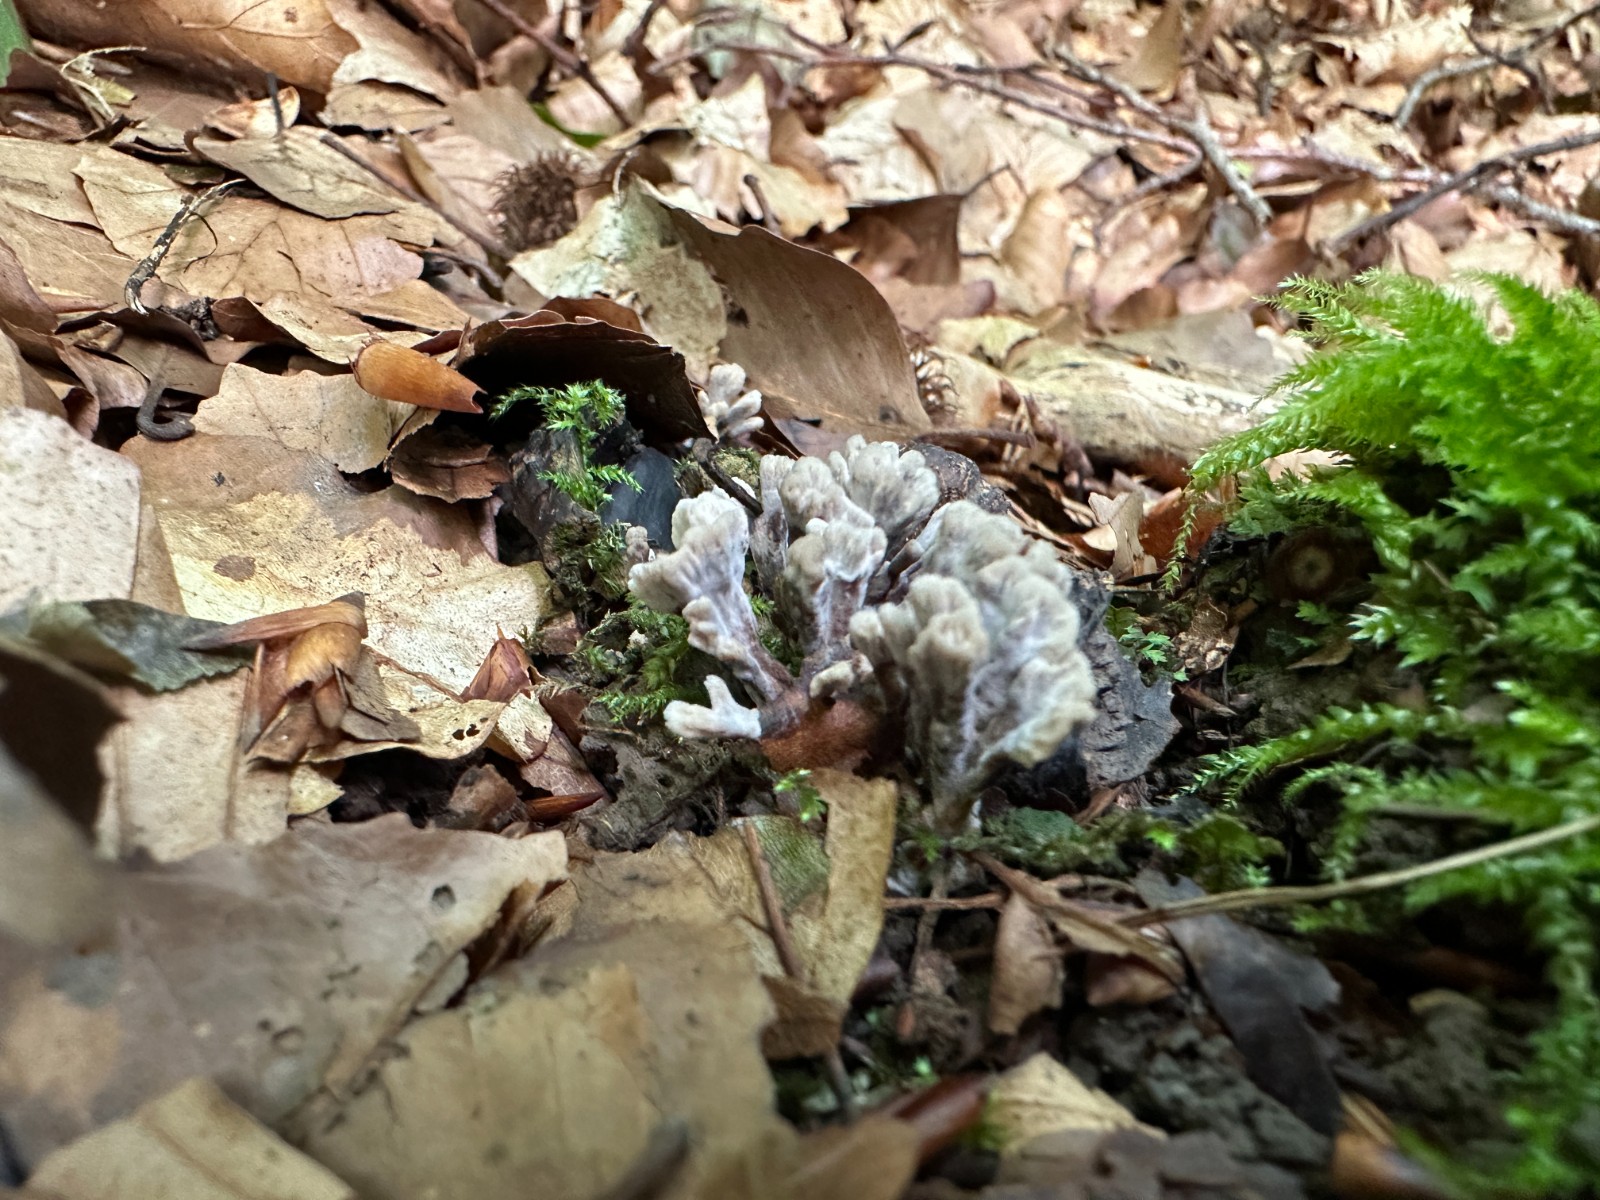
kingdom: Fungi
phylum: Basidiomycota
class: Agaricomycetes
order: Thelephorales
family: Thelephoraceae
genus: Thelephora
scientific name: Thelephora anthocephala
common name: busk-frynsesvamp
